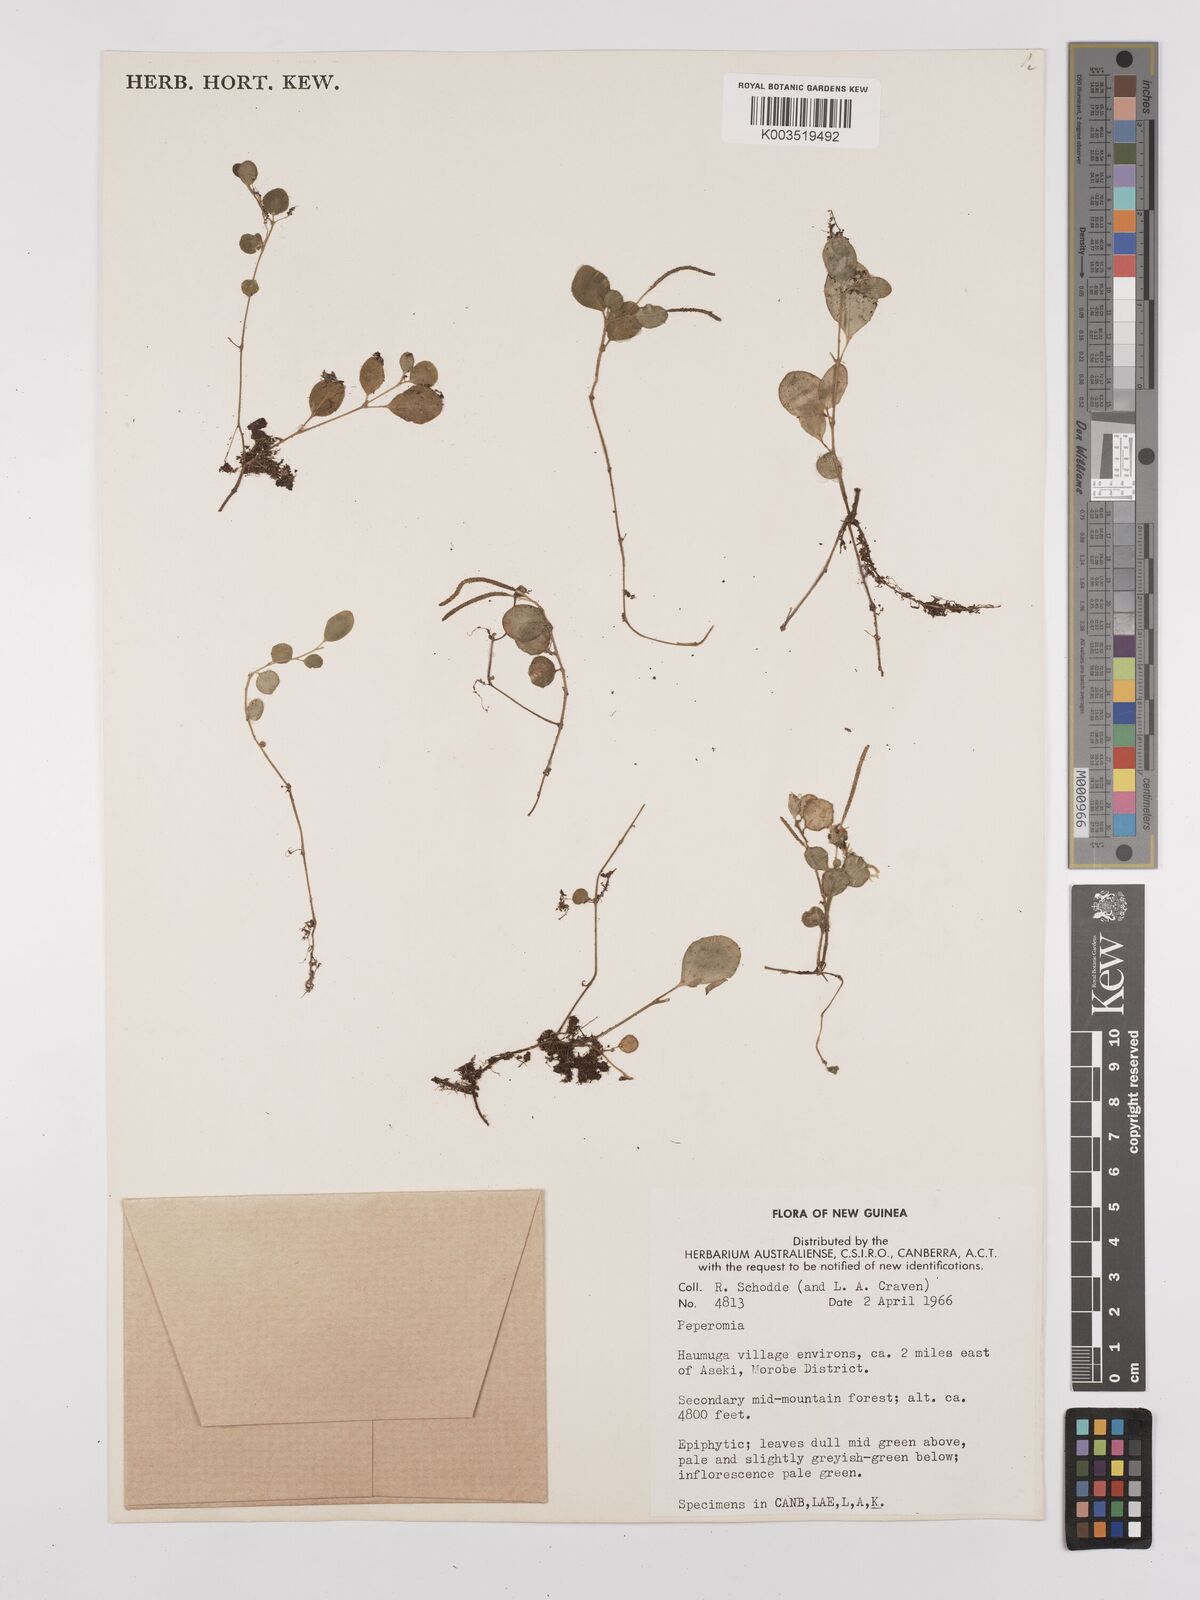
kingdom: Plantae
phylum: Tracheophyta
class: Magnoliopsida
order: Piperales
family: Piperaceae
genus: Peperomia
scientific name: Peperomia
